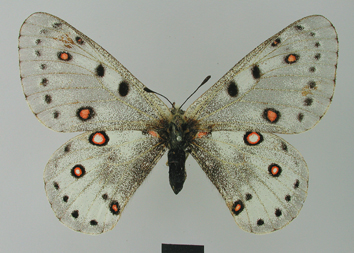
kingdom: Animalia
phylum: Arthropoda
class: Insecta
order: Lepidoptera
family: Papilionidae
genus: Parnassius
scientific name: Parnassius apollonius
